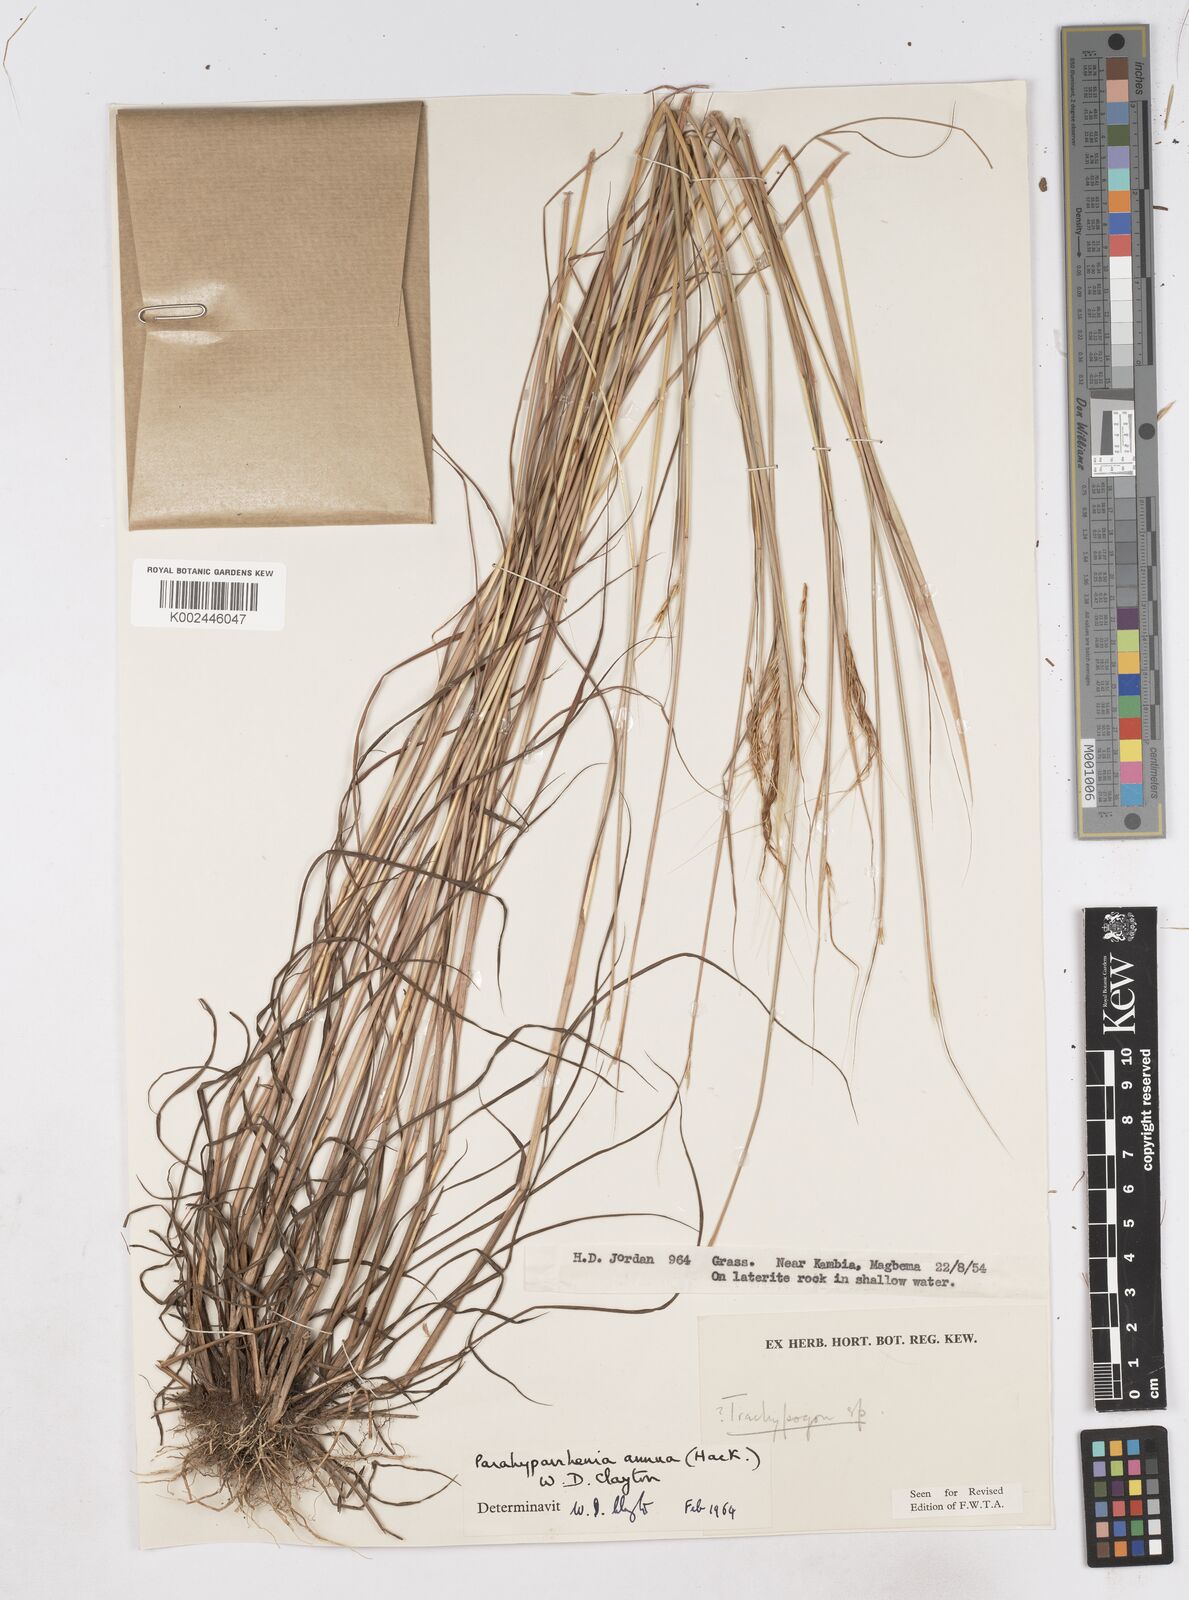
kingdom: Plantae
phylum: Tracheophyta
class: Liliopsida
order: Poales
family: Poaceae
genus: Parahyparrhenia
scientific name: Parahyparrhenia annua
